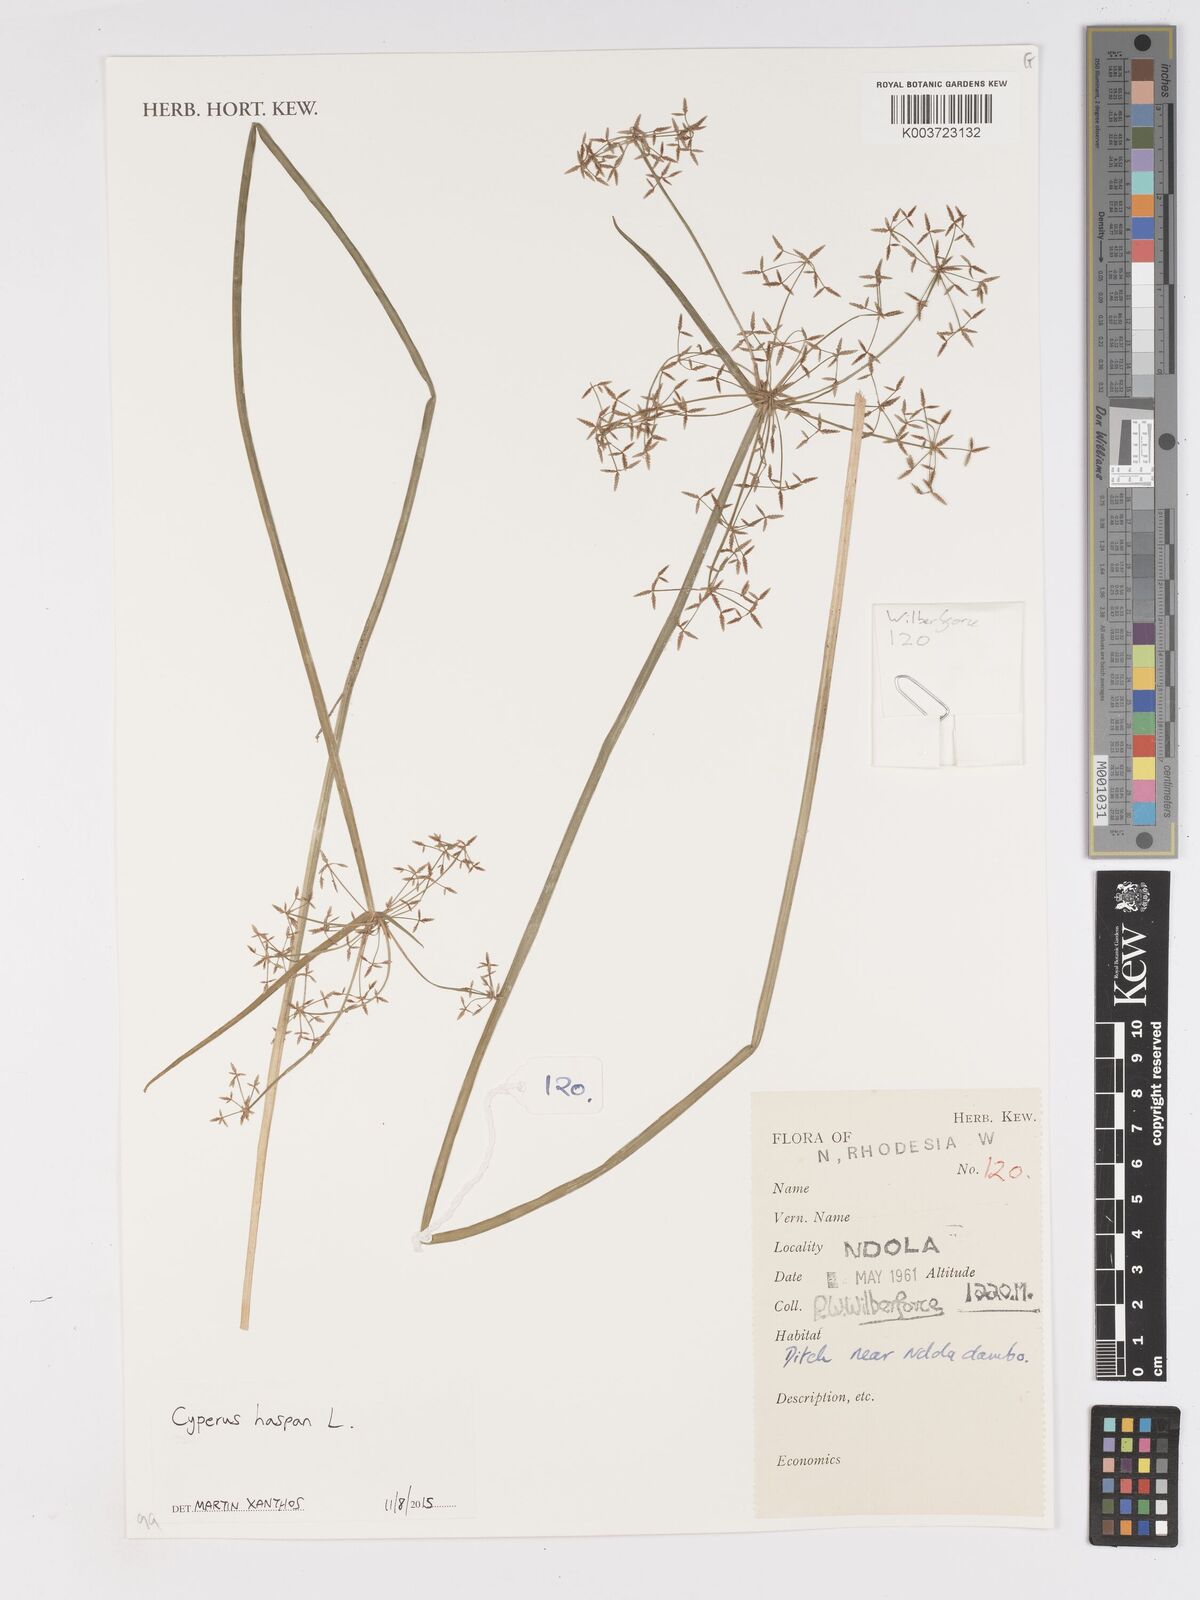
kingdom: Plantae
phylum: Tracheophyta
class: Liliopsida
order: Poales
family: Cyperaceae
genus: Cyperus
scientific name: Cyperus haspan
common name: Haspan flatsedge
